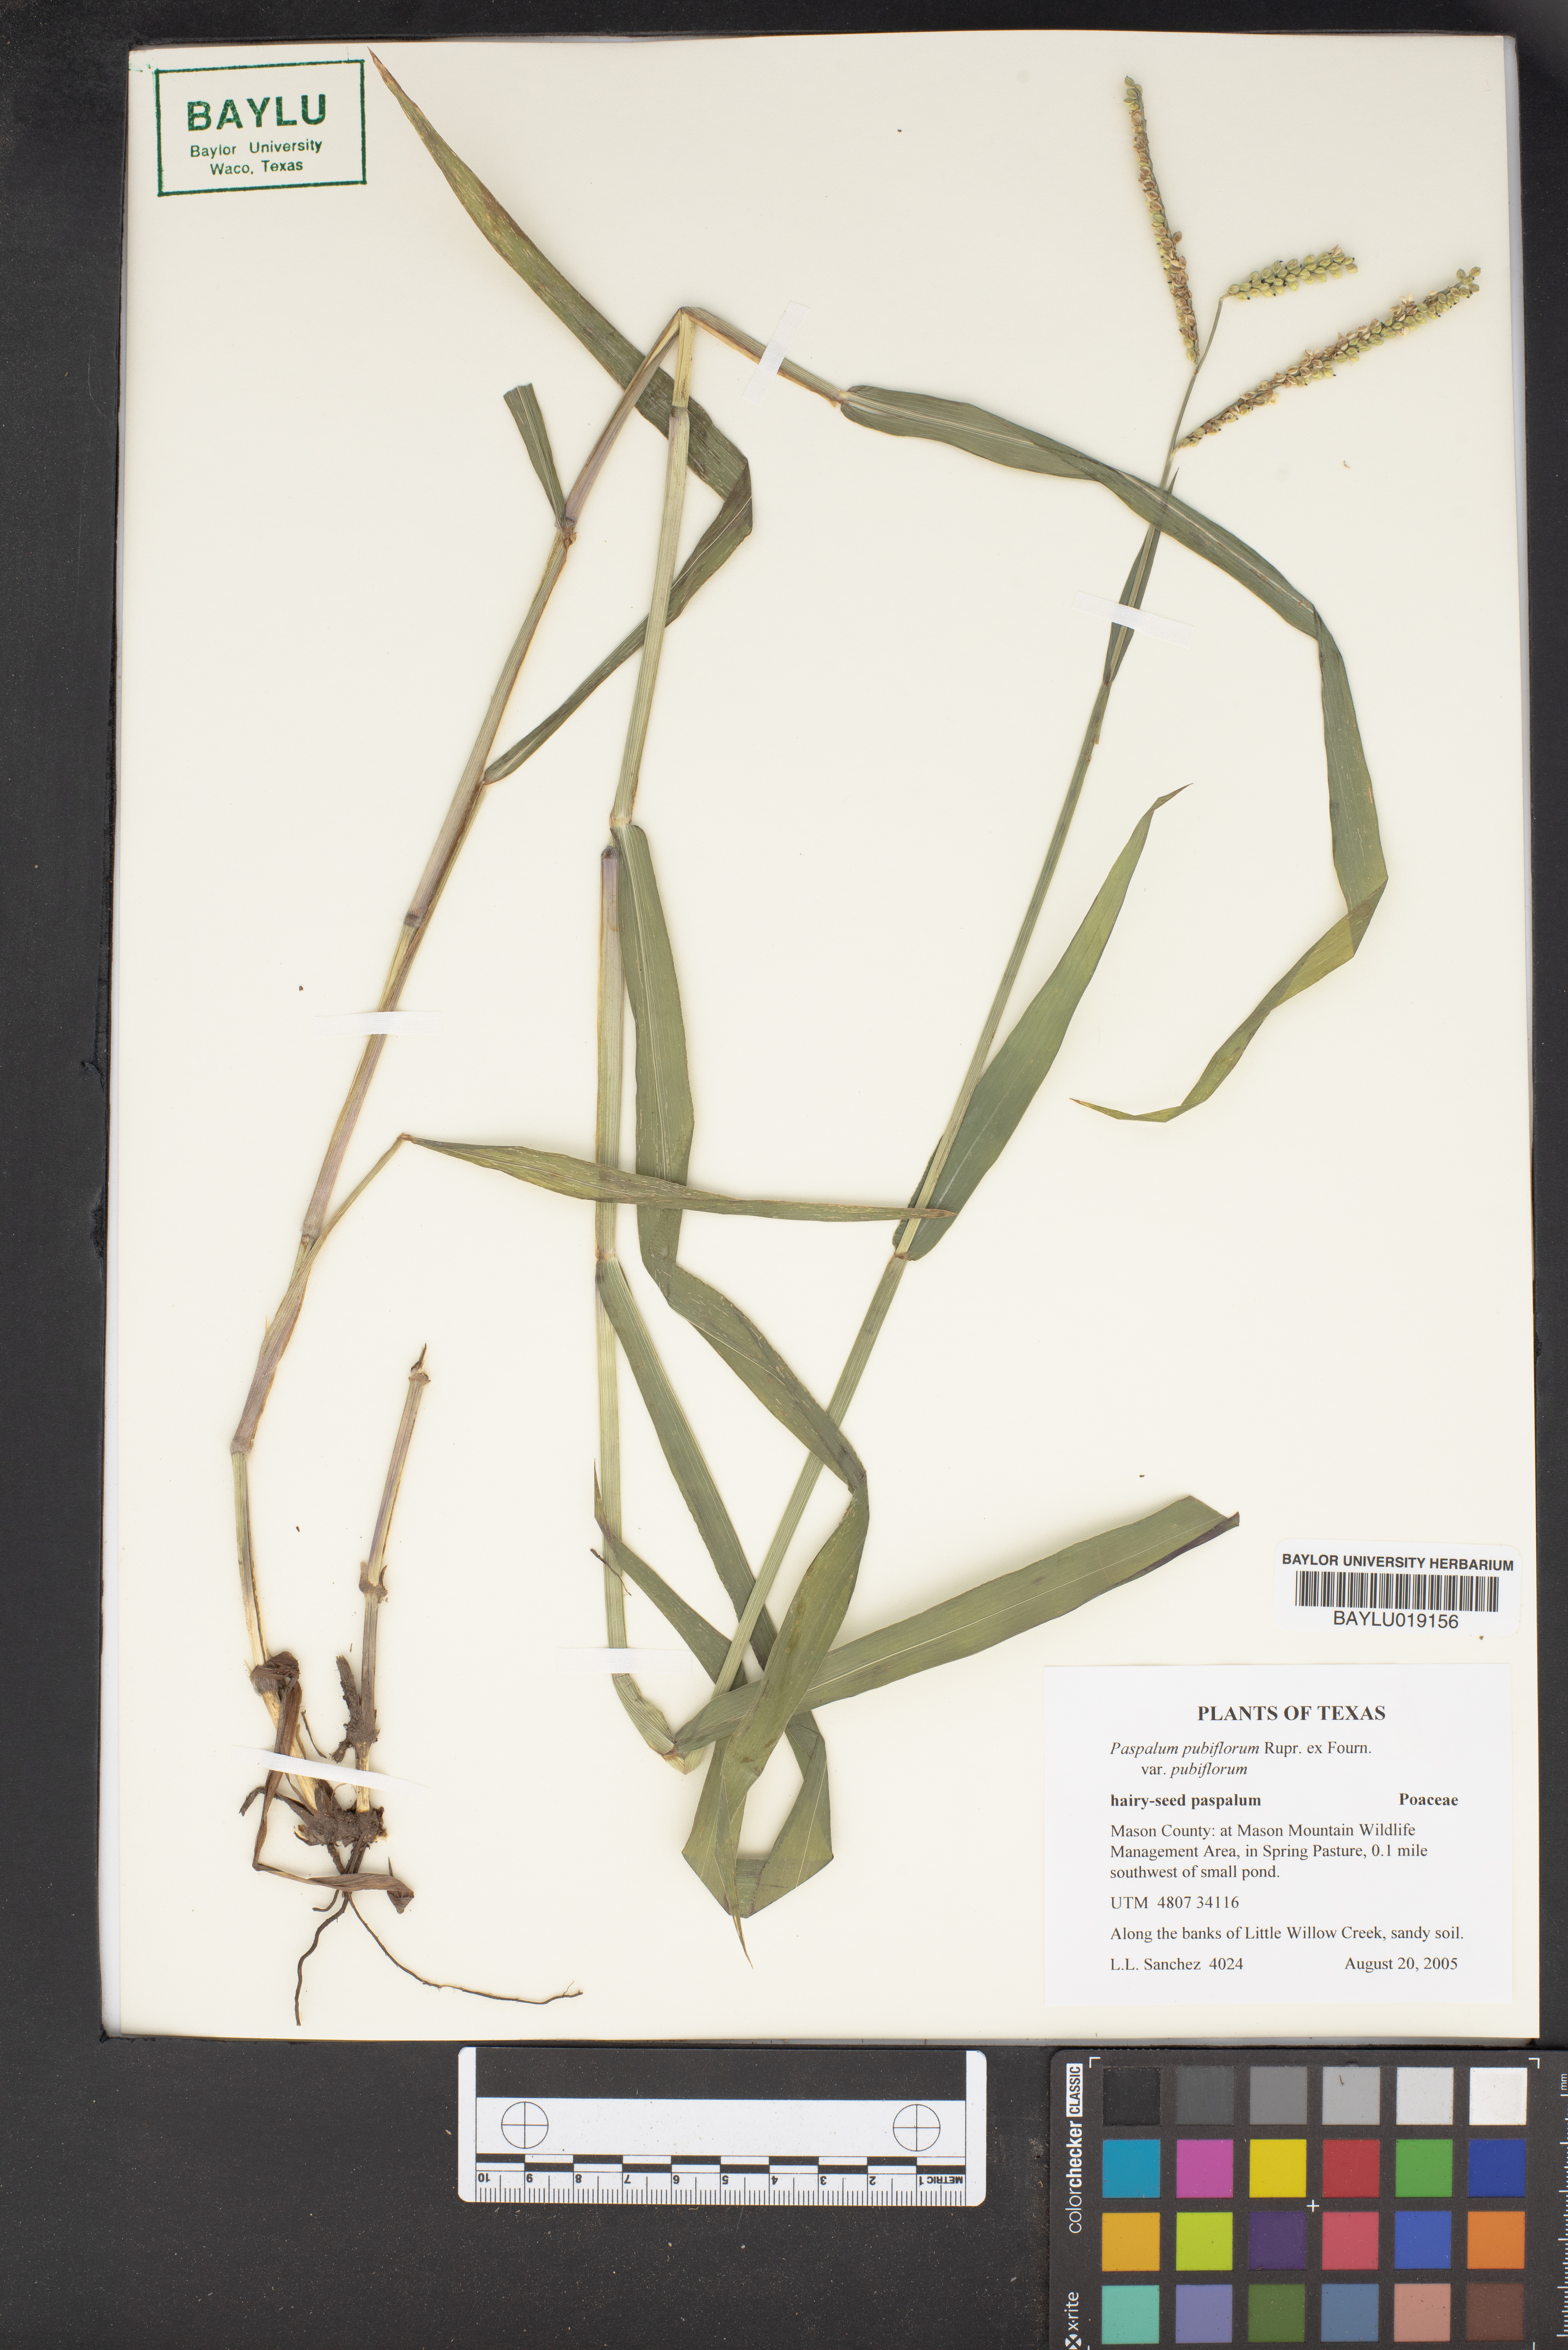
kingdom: Plantae
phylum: Tracheophyta
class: Liliopsida
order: Poales
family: Poaceae
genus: Paspalum
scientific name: Paspalum pubiflorum
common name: Hairy-seed paspalum
